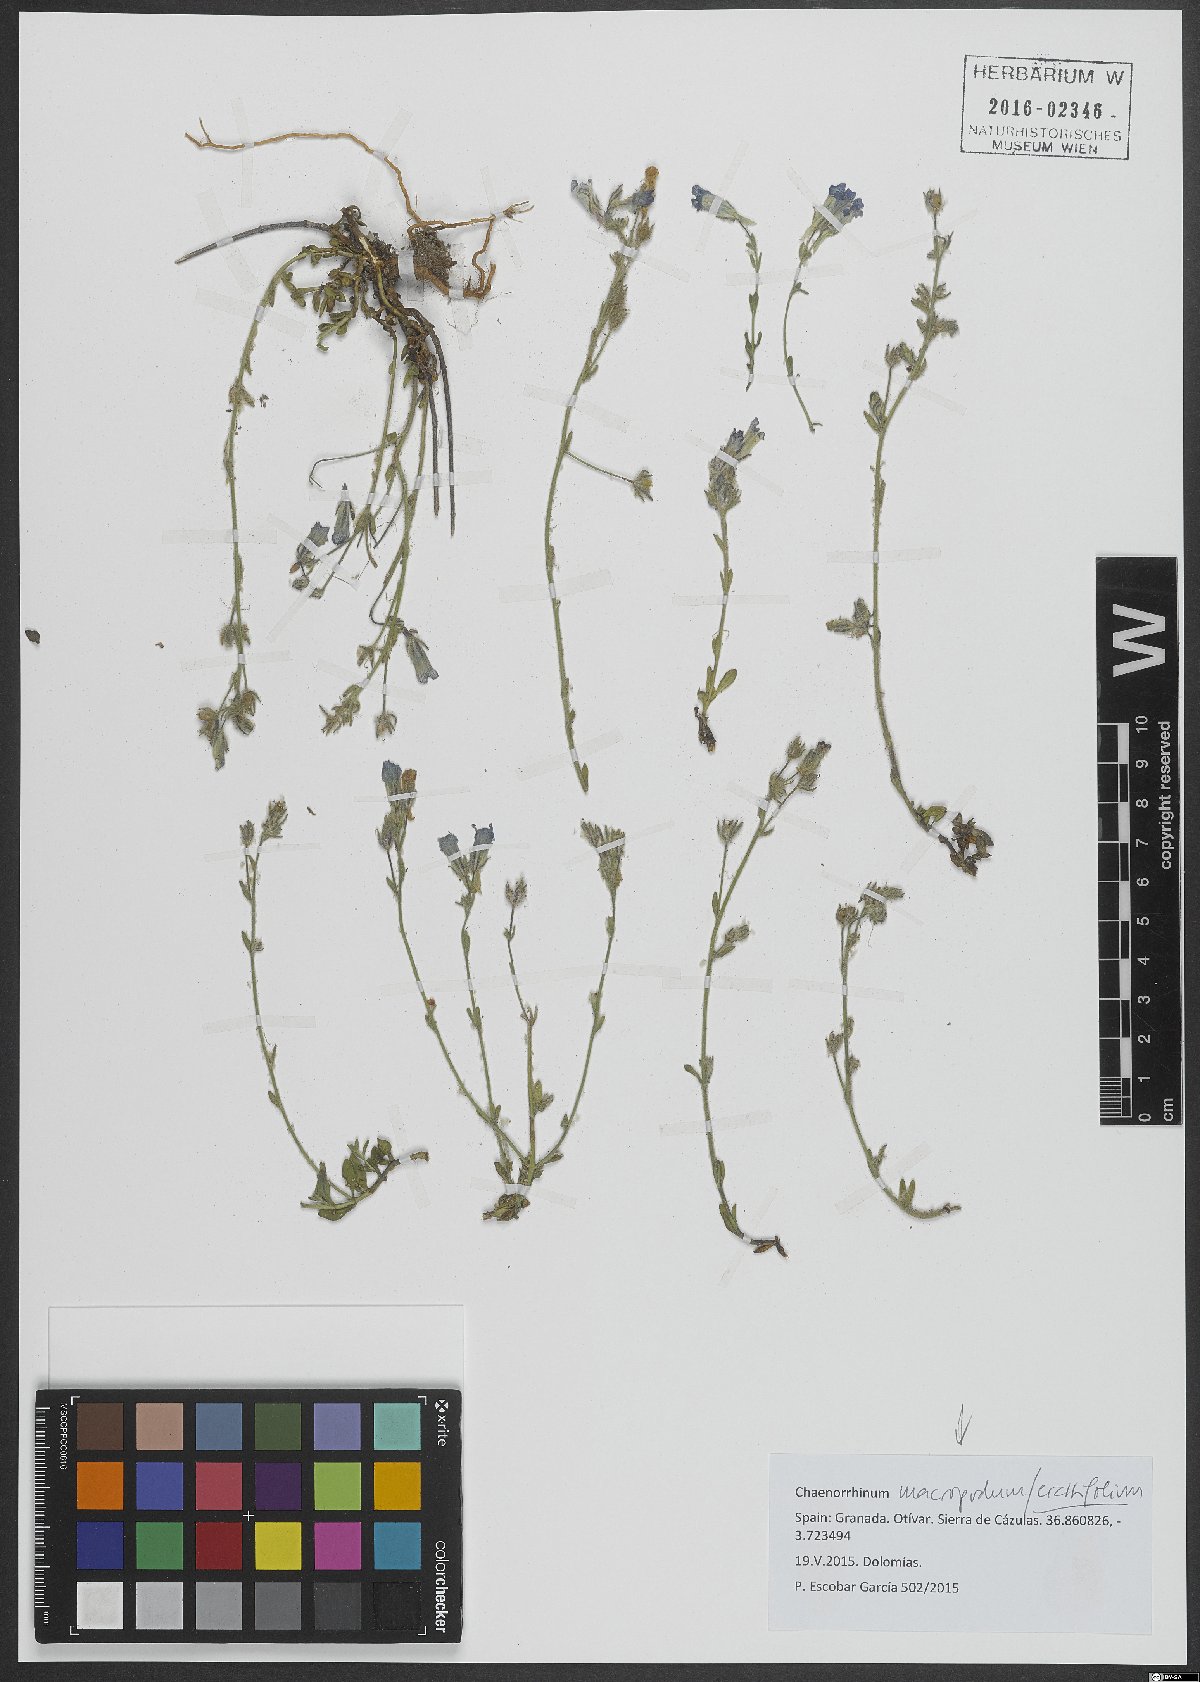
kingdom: Plantae
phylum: Tracheophyta
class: Magnoliopsida
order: Lamiales
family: Plantaginaceae
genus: Chaenorhinum
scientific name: Chaenorhinum macropodum
